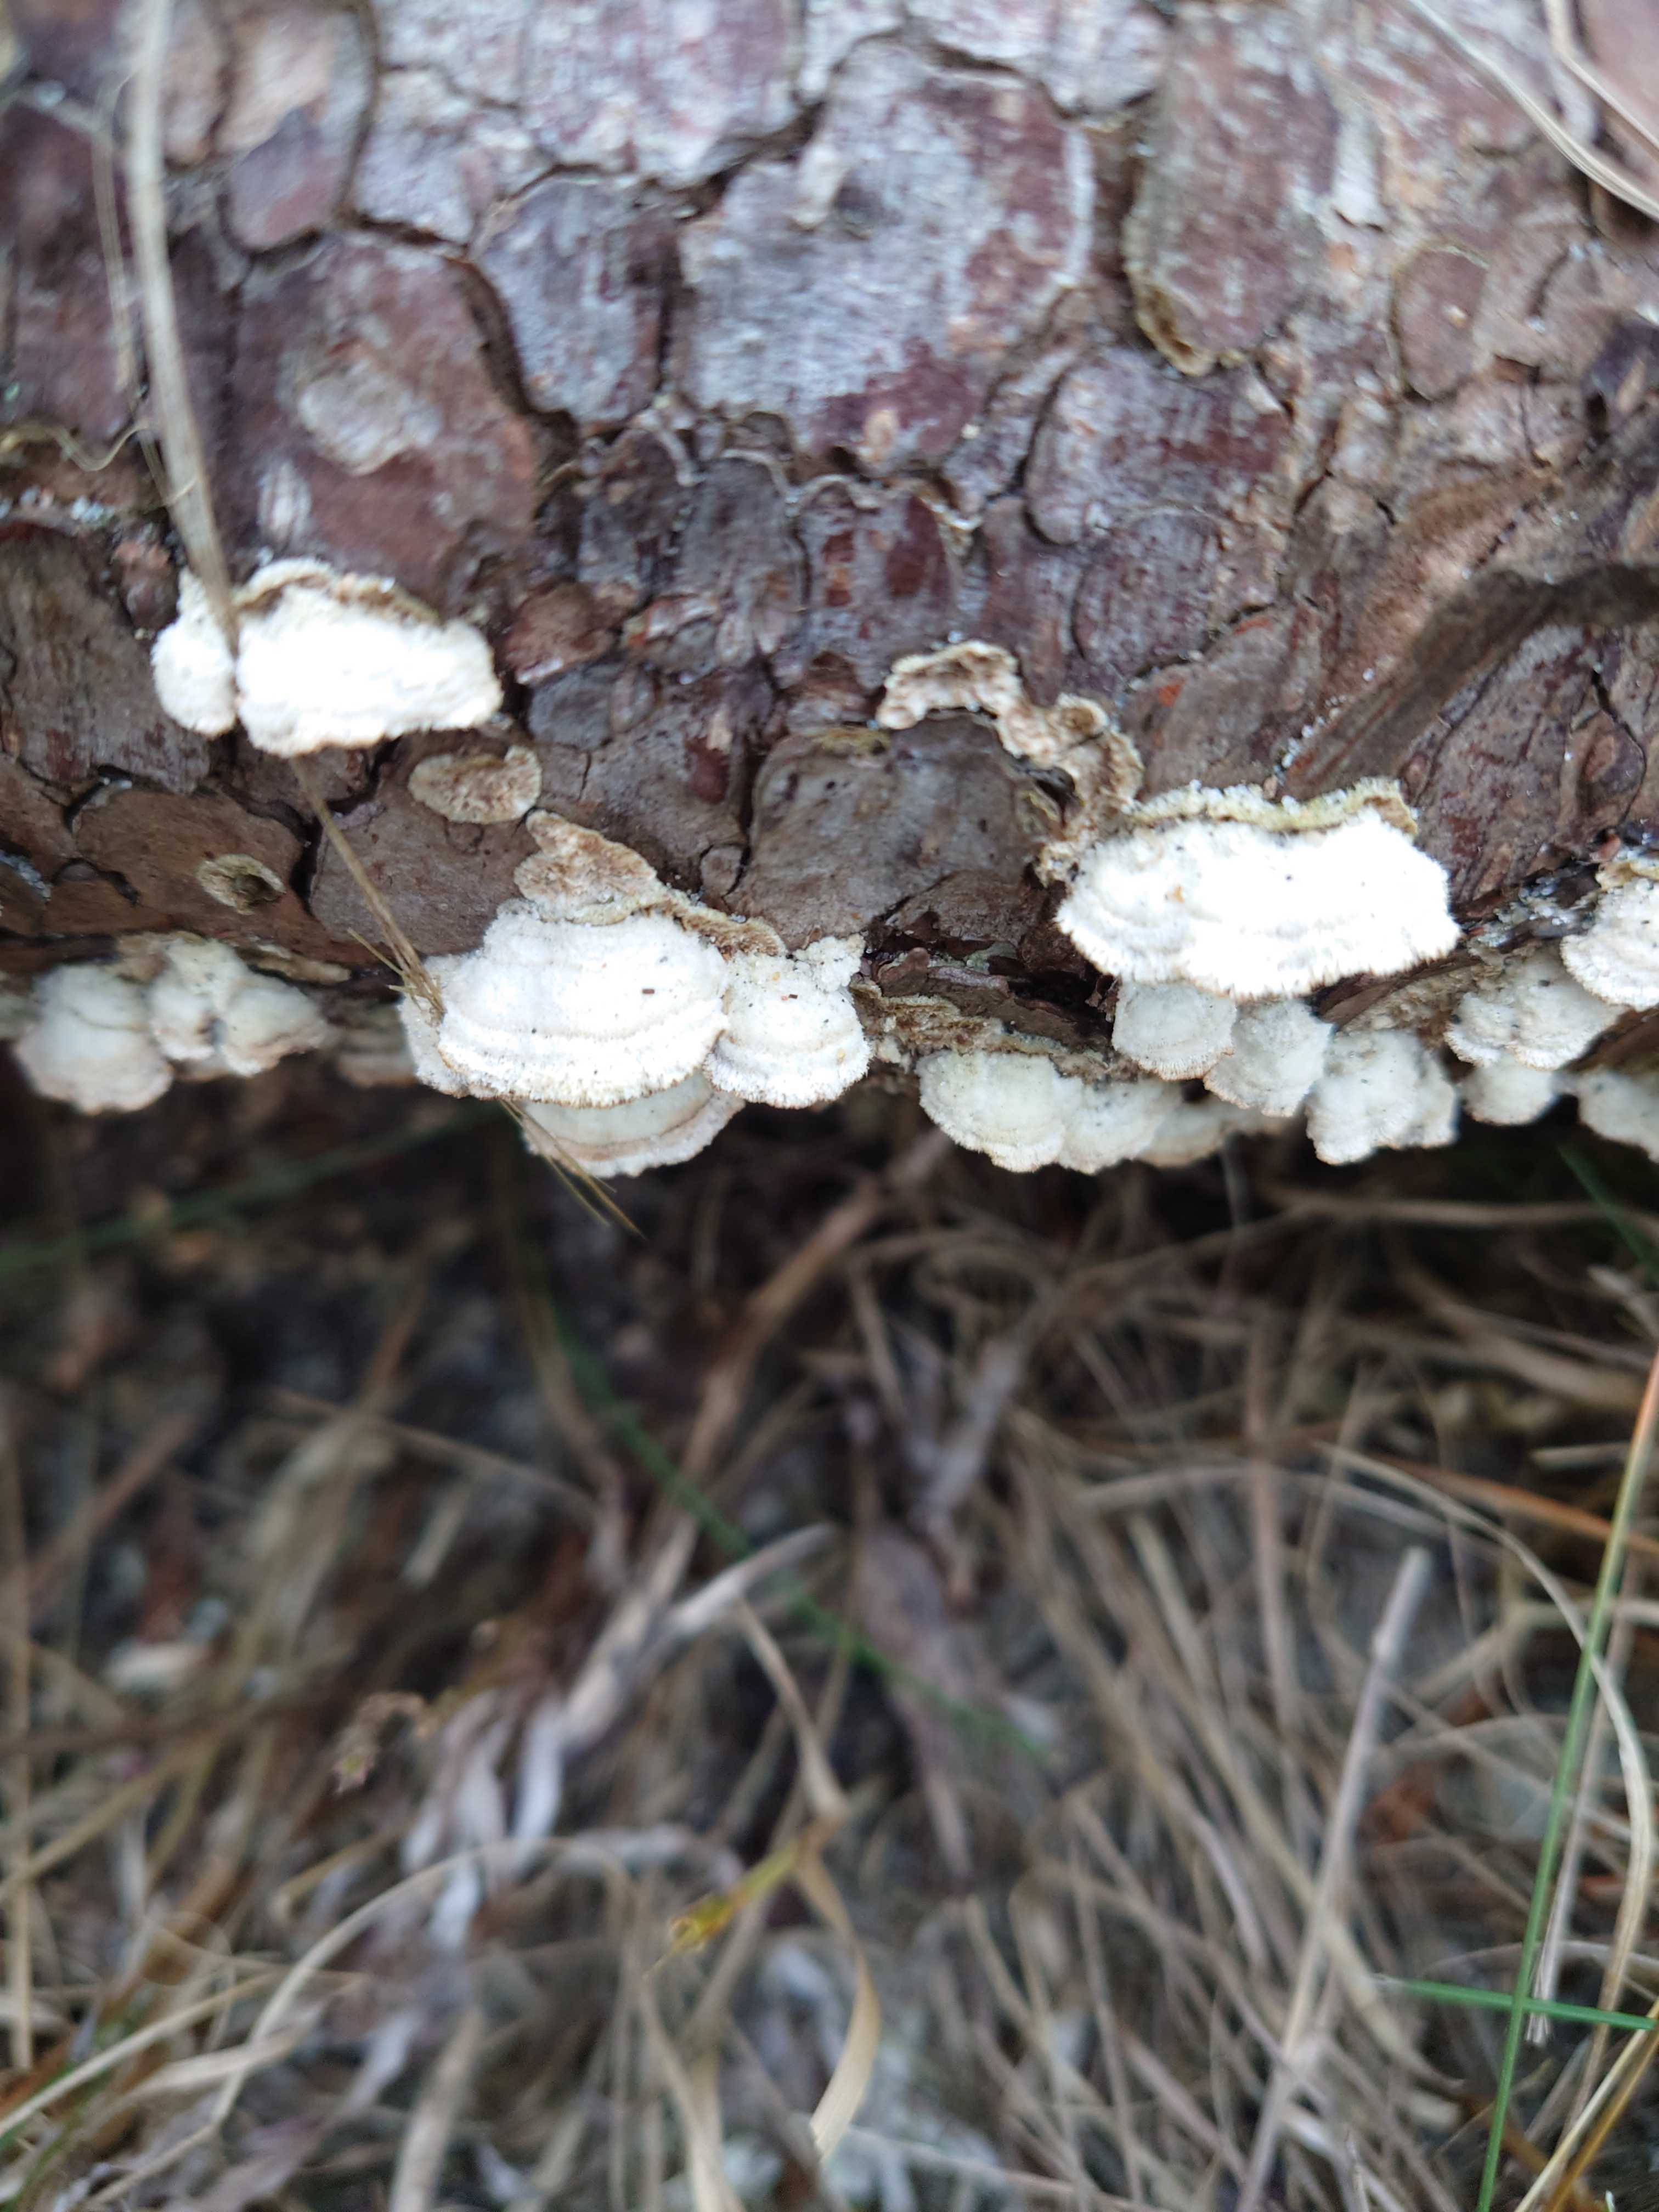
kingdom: Fungi
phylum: Basidiomycota
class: Agaricomycetes
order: Hymenochaetales
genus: Trichaptum
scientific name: Trichaptum fuscoviolaceum
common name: tandet violporesvamp
